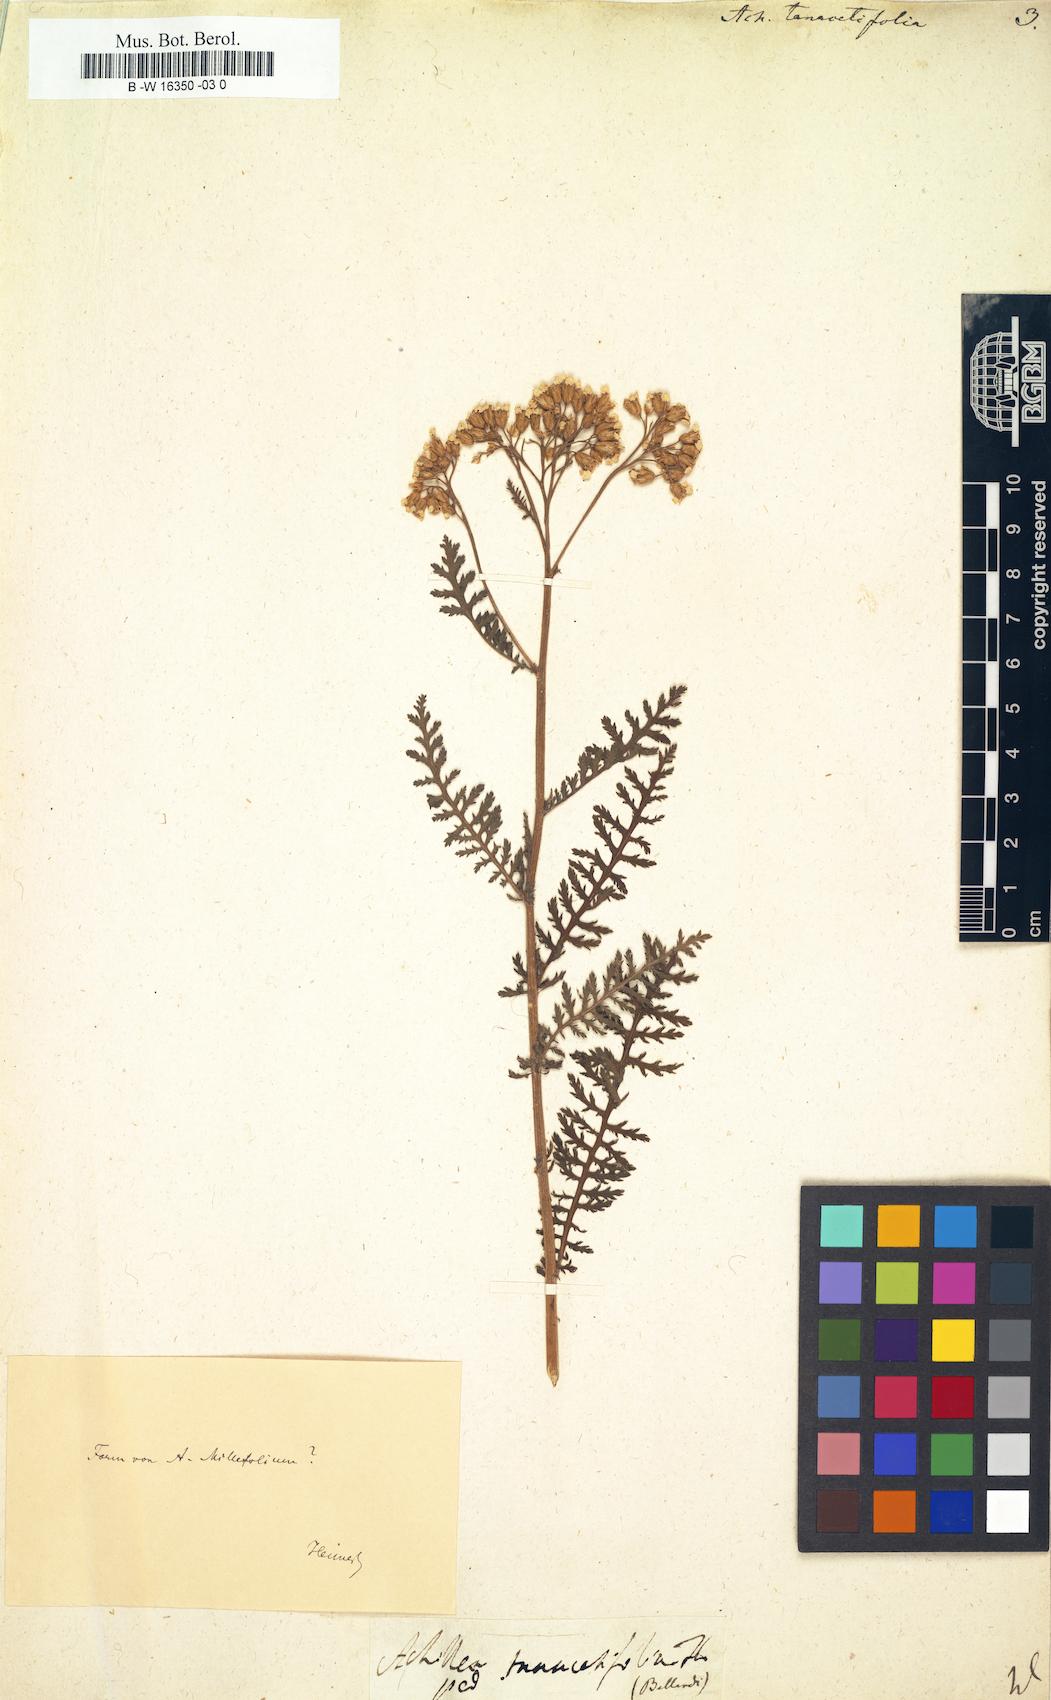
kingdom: Plantae
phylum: Tracheophyta
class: Magnoliopsida
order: Asterales
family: Asteraceae
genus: Achillea
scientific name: Achillea distans
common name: Tall yarrow
